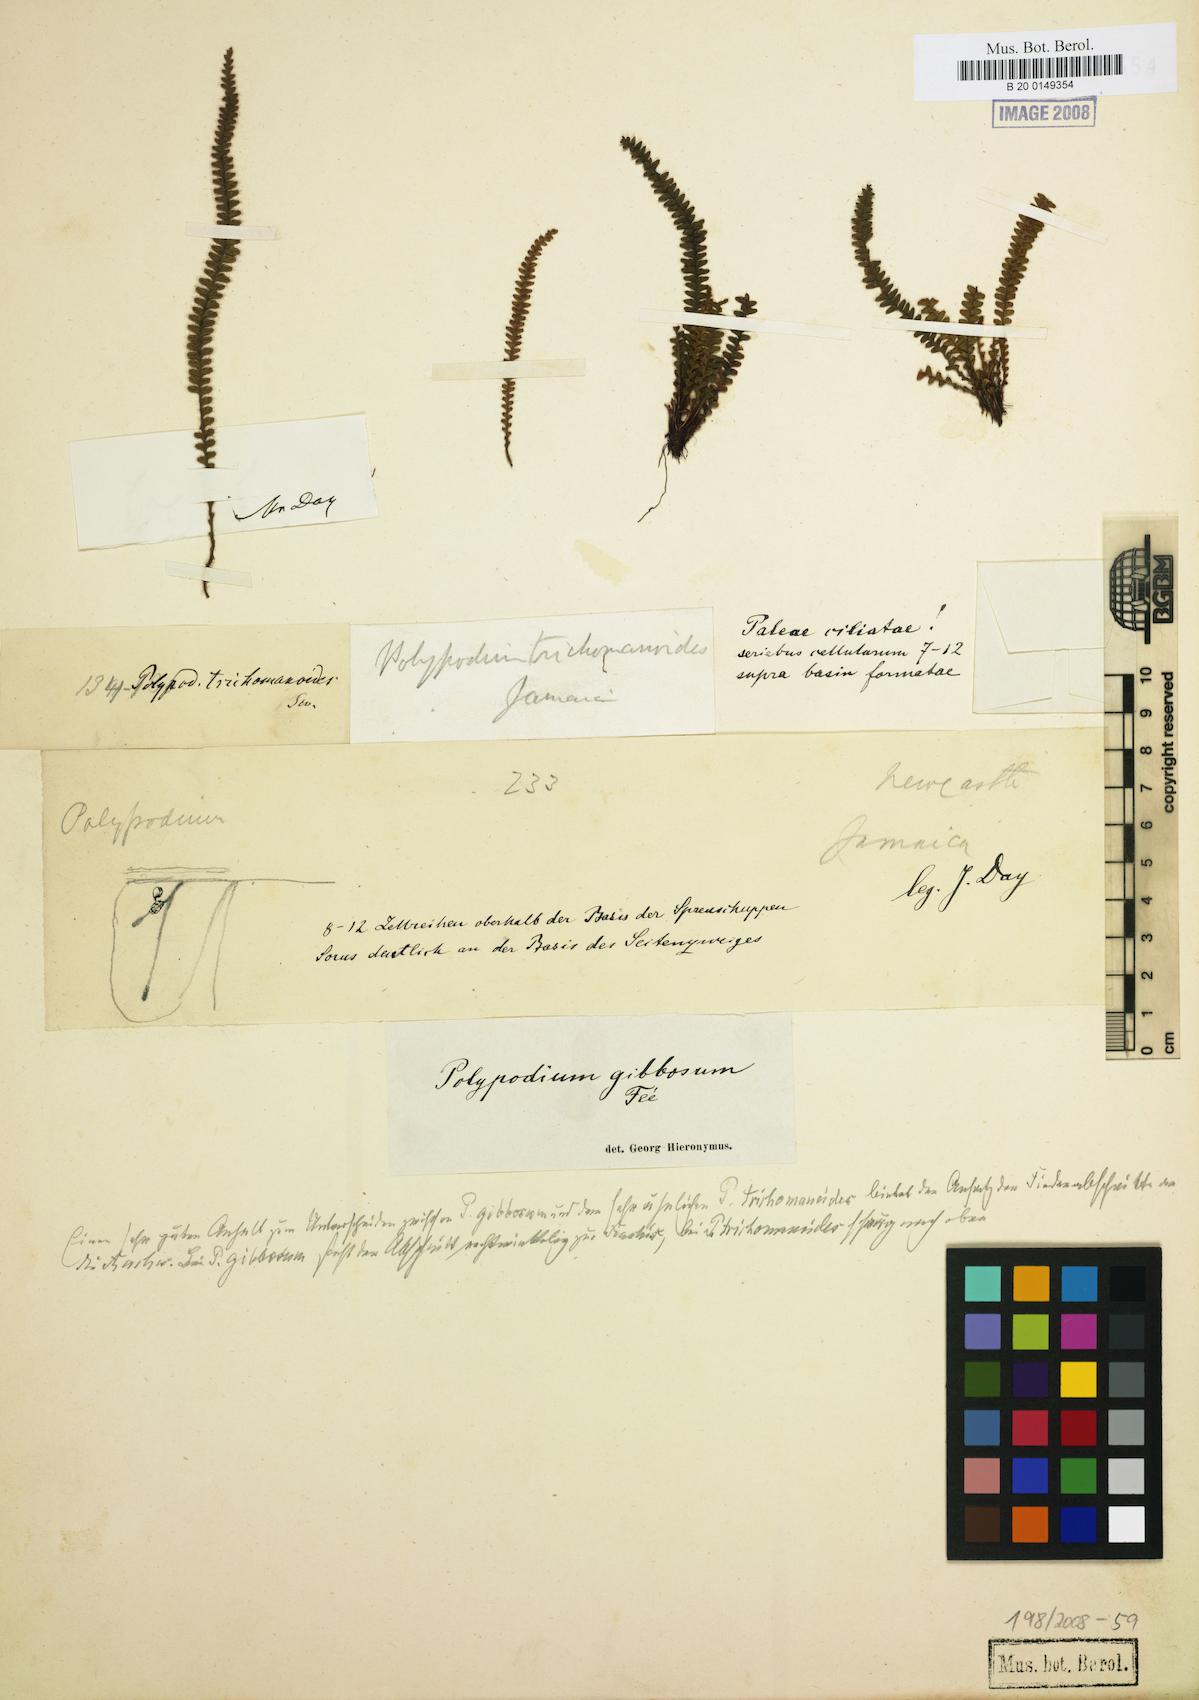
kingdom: Plantae
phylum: Tracheophyta
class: Polypodiopsida
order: Polypodiales
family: Polypodiaceae
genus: Moranopteris
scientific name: Moranopteris microlepis
